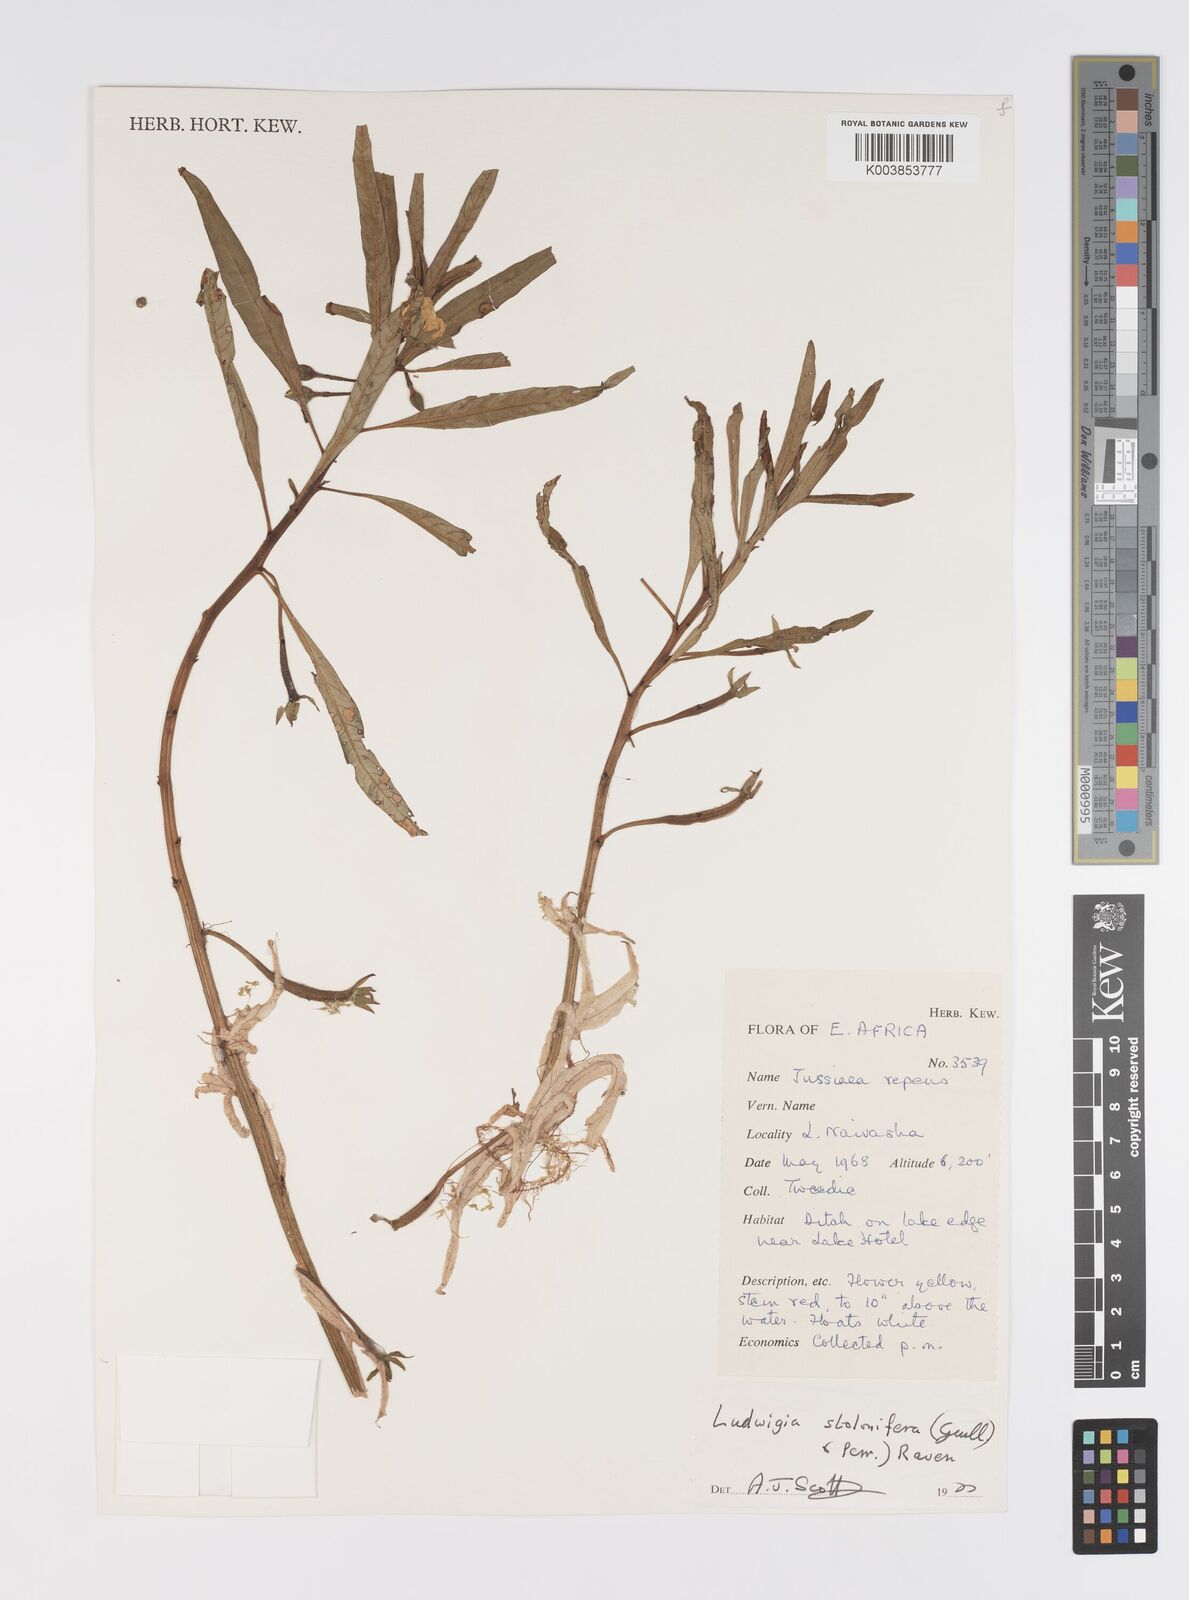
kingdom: Plantae
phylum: Tracheophyta
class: Magnoliopsida
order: Myrtales
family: Onagraceae
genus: Ludwigia
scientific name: Ludwigia repens
